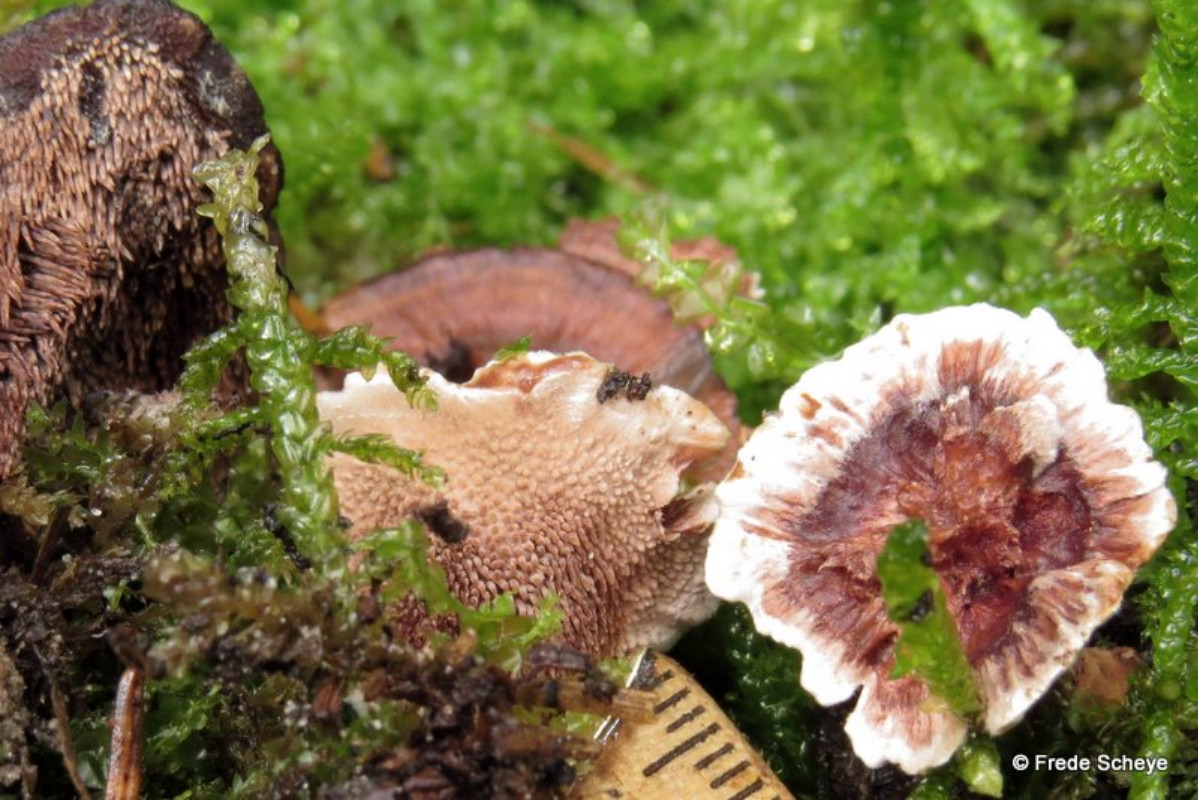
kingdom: Fungi
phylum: Basidiomycota
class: Agaricomycetes
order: Thelephorales
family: Bankeraceae
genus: Hydnellum
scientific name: Hydnellum concrescens
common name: bæltet korkpigsvamp
